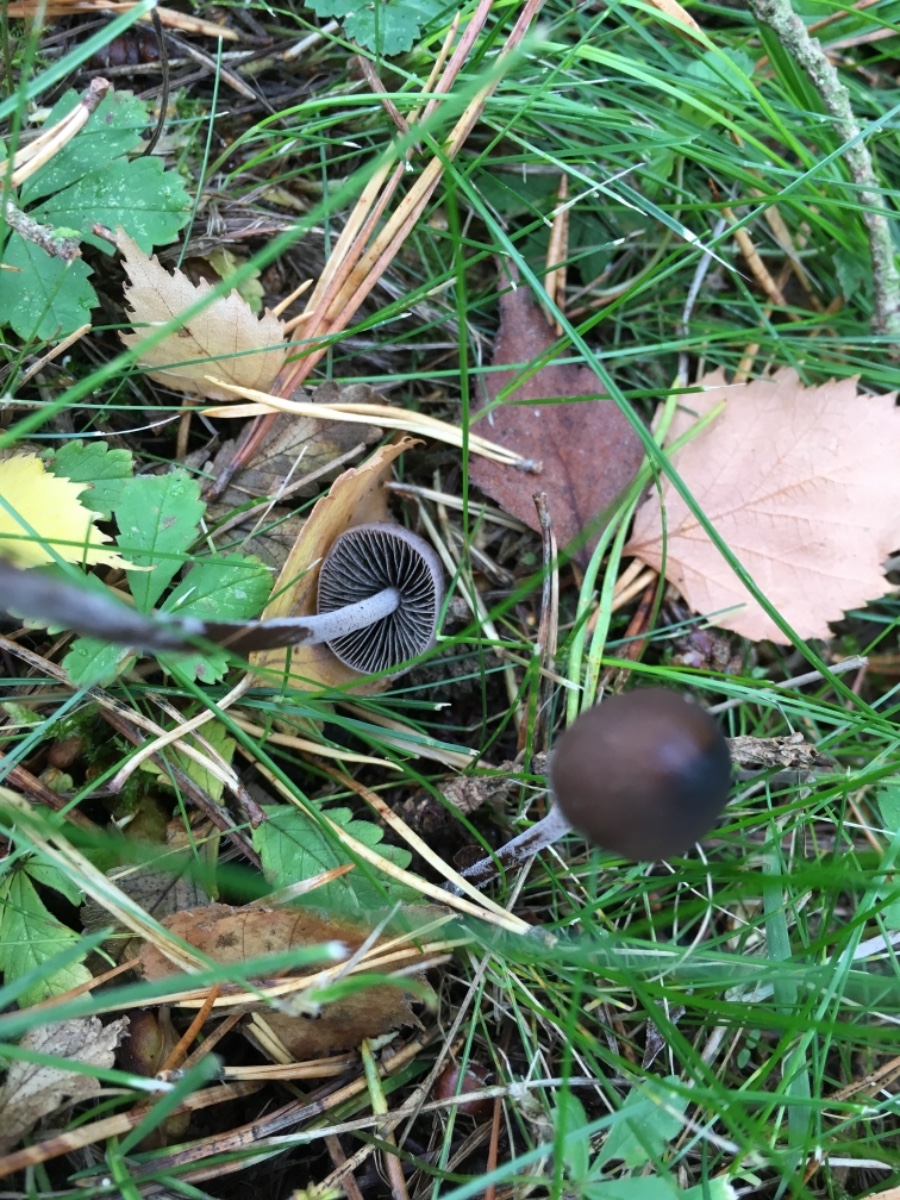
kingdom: Fungi
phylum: Basidiomycota
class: Agaricomycetes
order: Agaricales
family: Bolbitiaceae
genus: Panaeolus
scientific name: Panaeolus acuminatus
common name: høj glanshat
